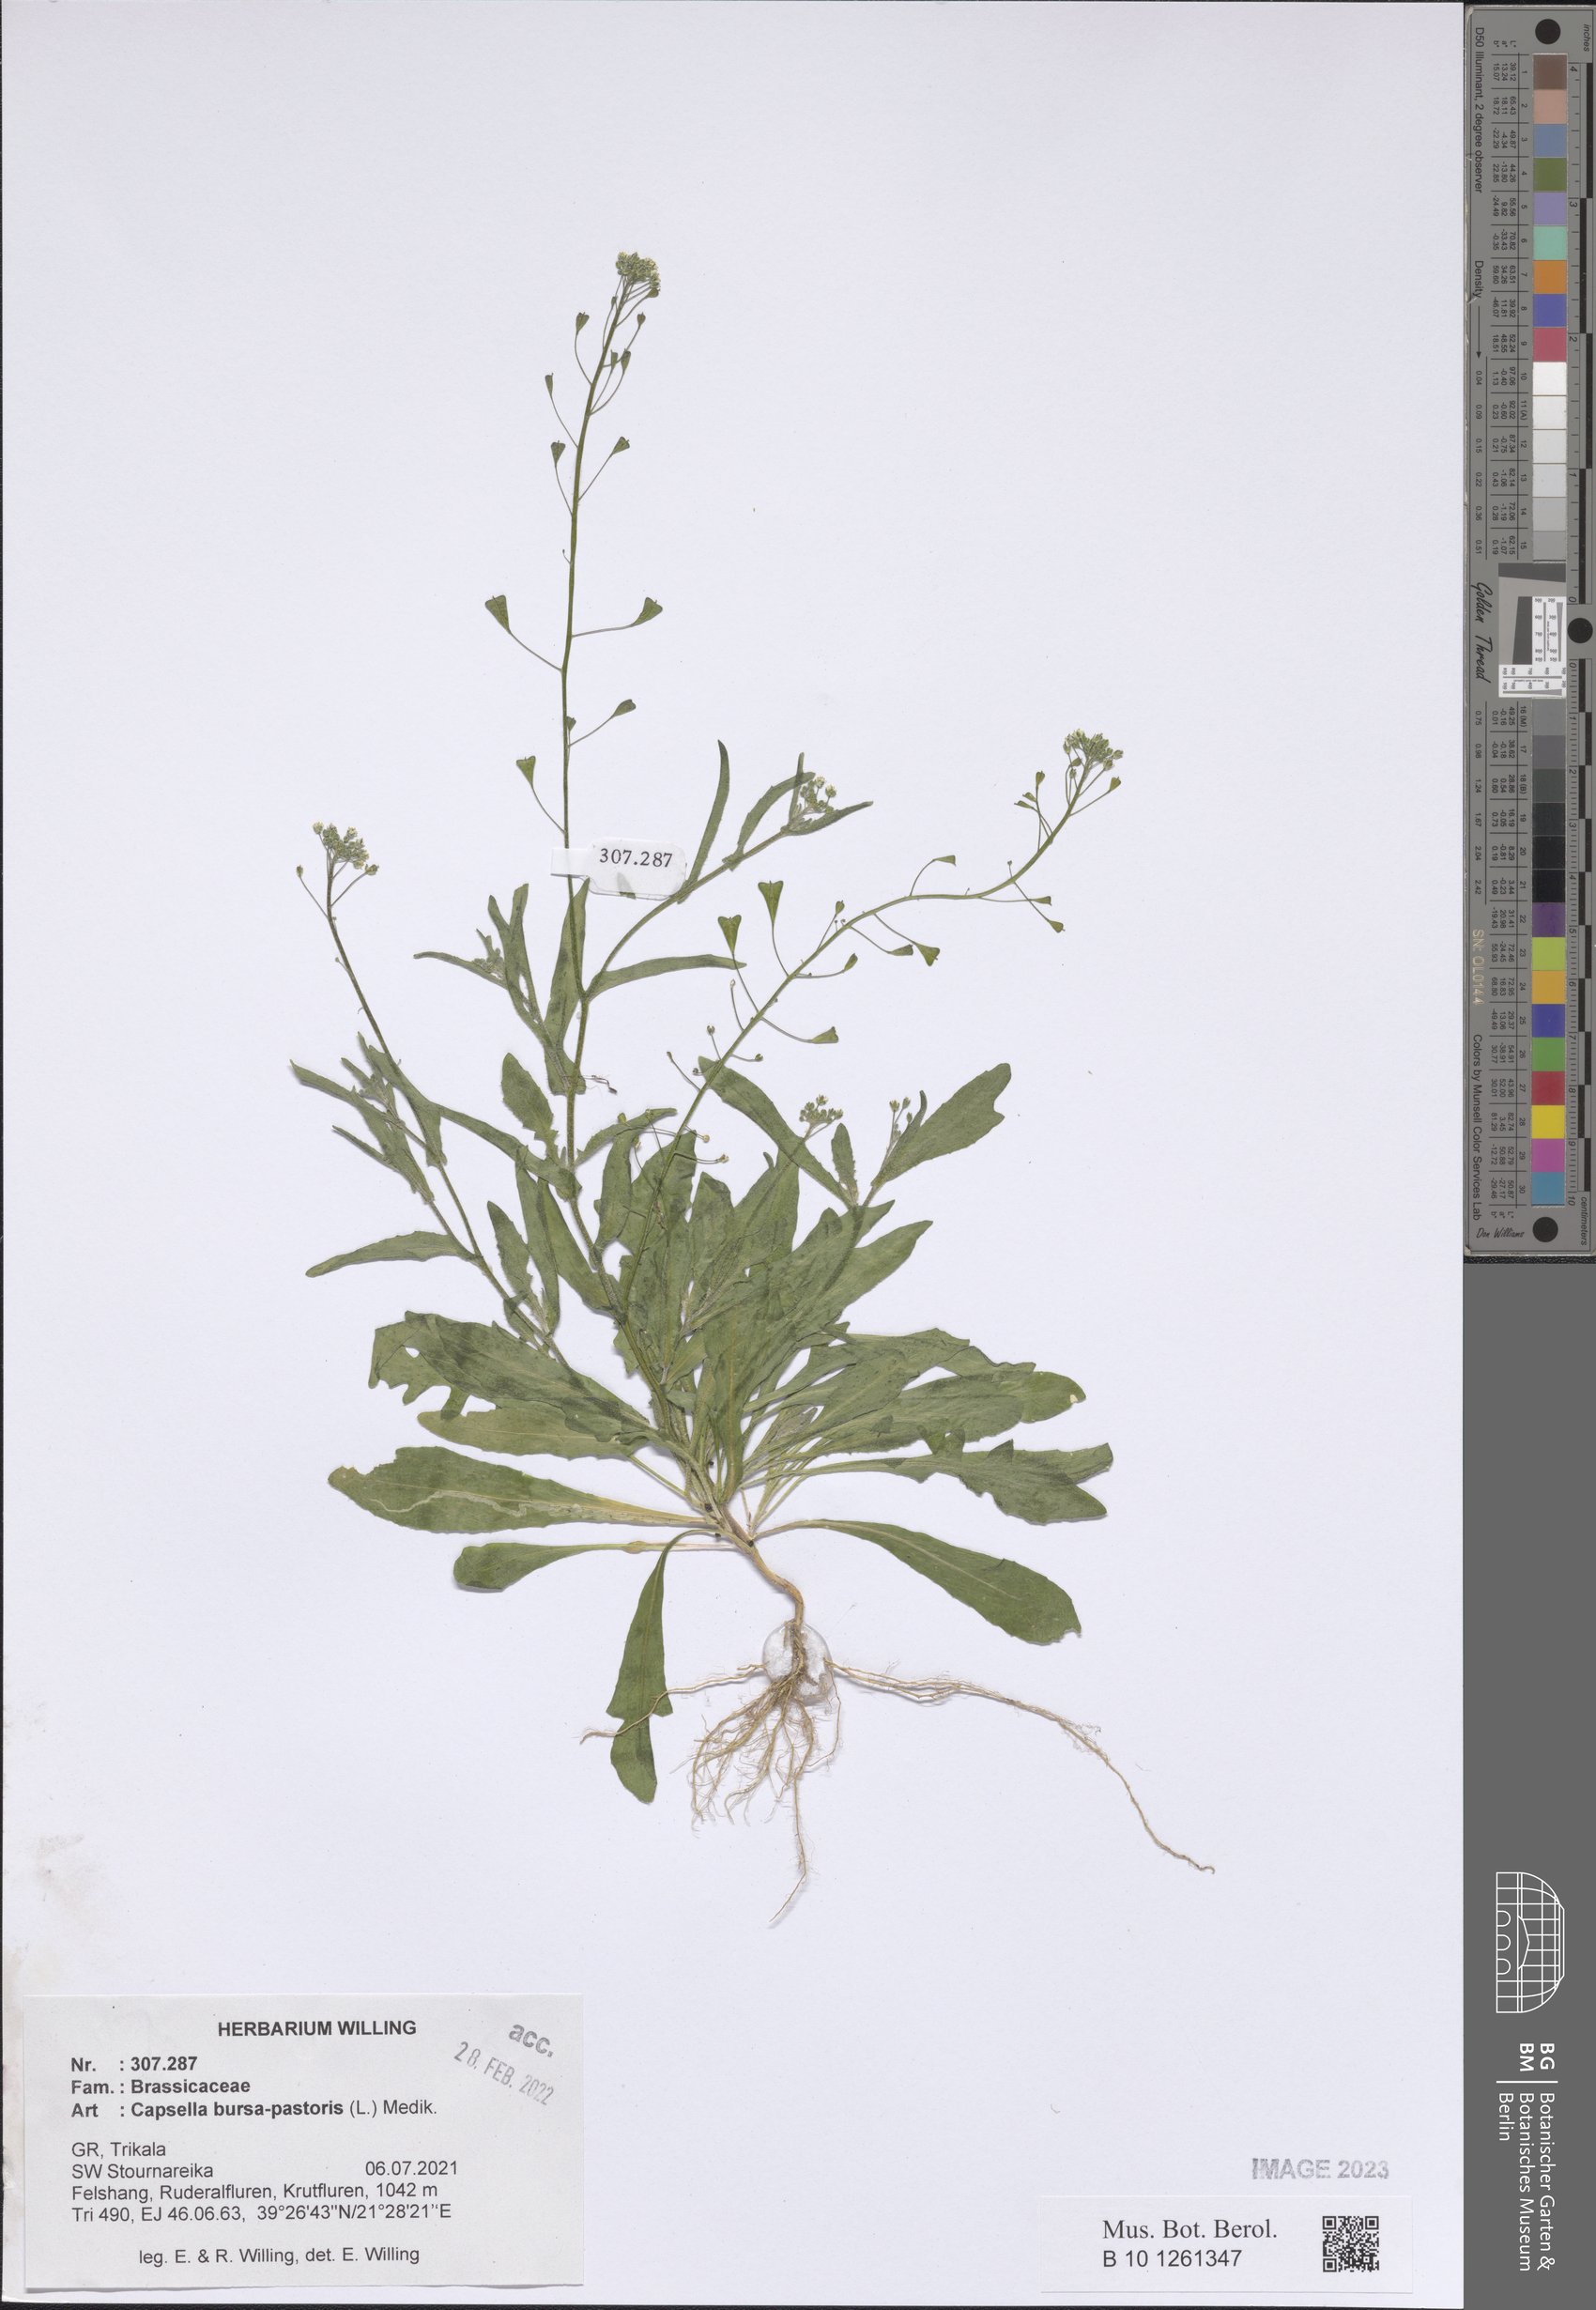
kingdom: Plantae
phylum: Tracheophyta
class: Magnoliopsida
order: Brassicales
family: Brassicaceae
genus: Capsella
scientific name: Capsella bursa-pastoris
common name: Shepherd's purse
